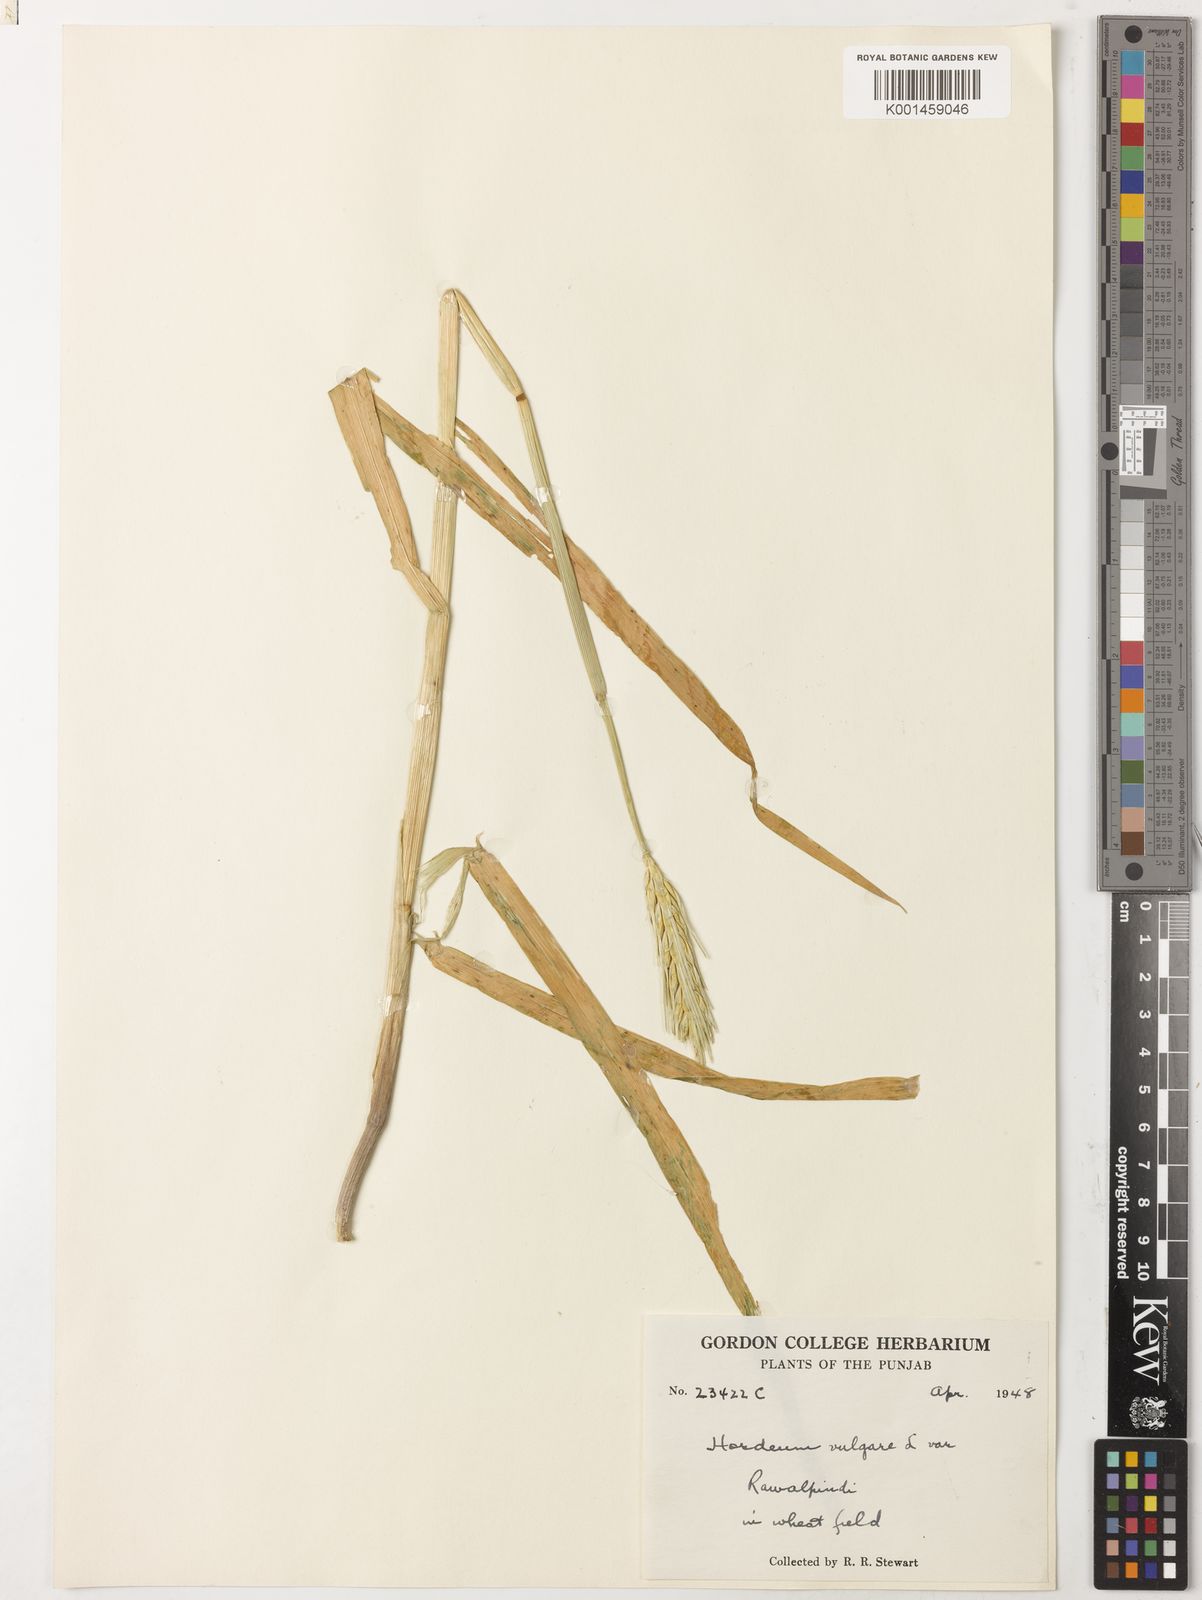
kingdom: Plantae
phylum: Tracheophyta
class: Liliopsida
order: Poales
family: Poaceae
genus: Hordeum
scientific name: Hordeum vulgare
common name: Common barley
